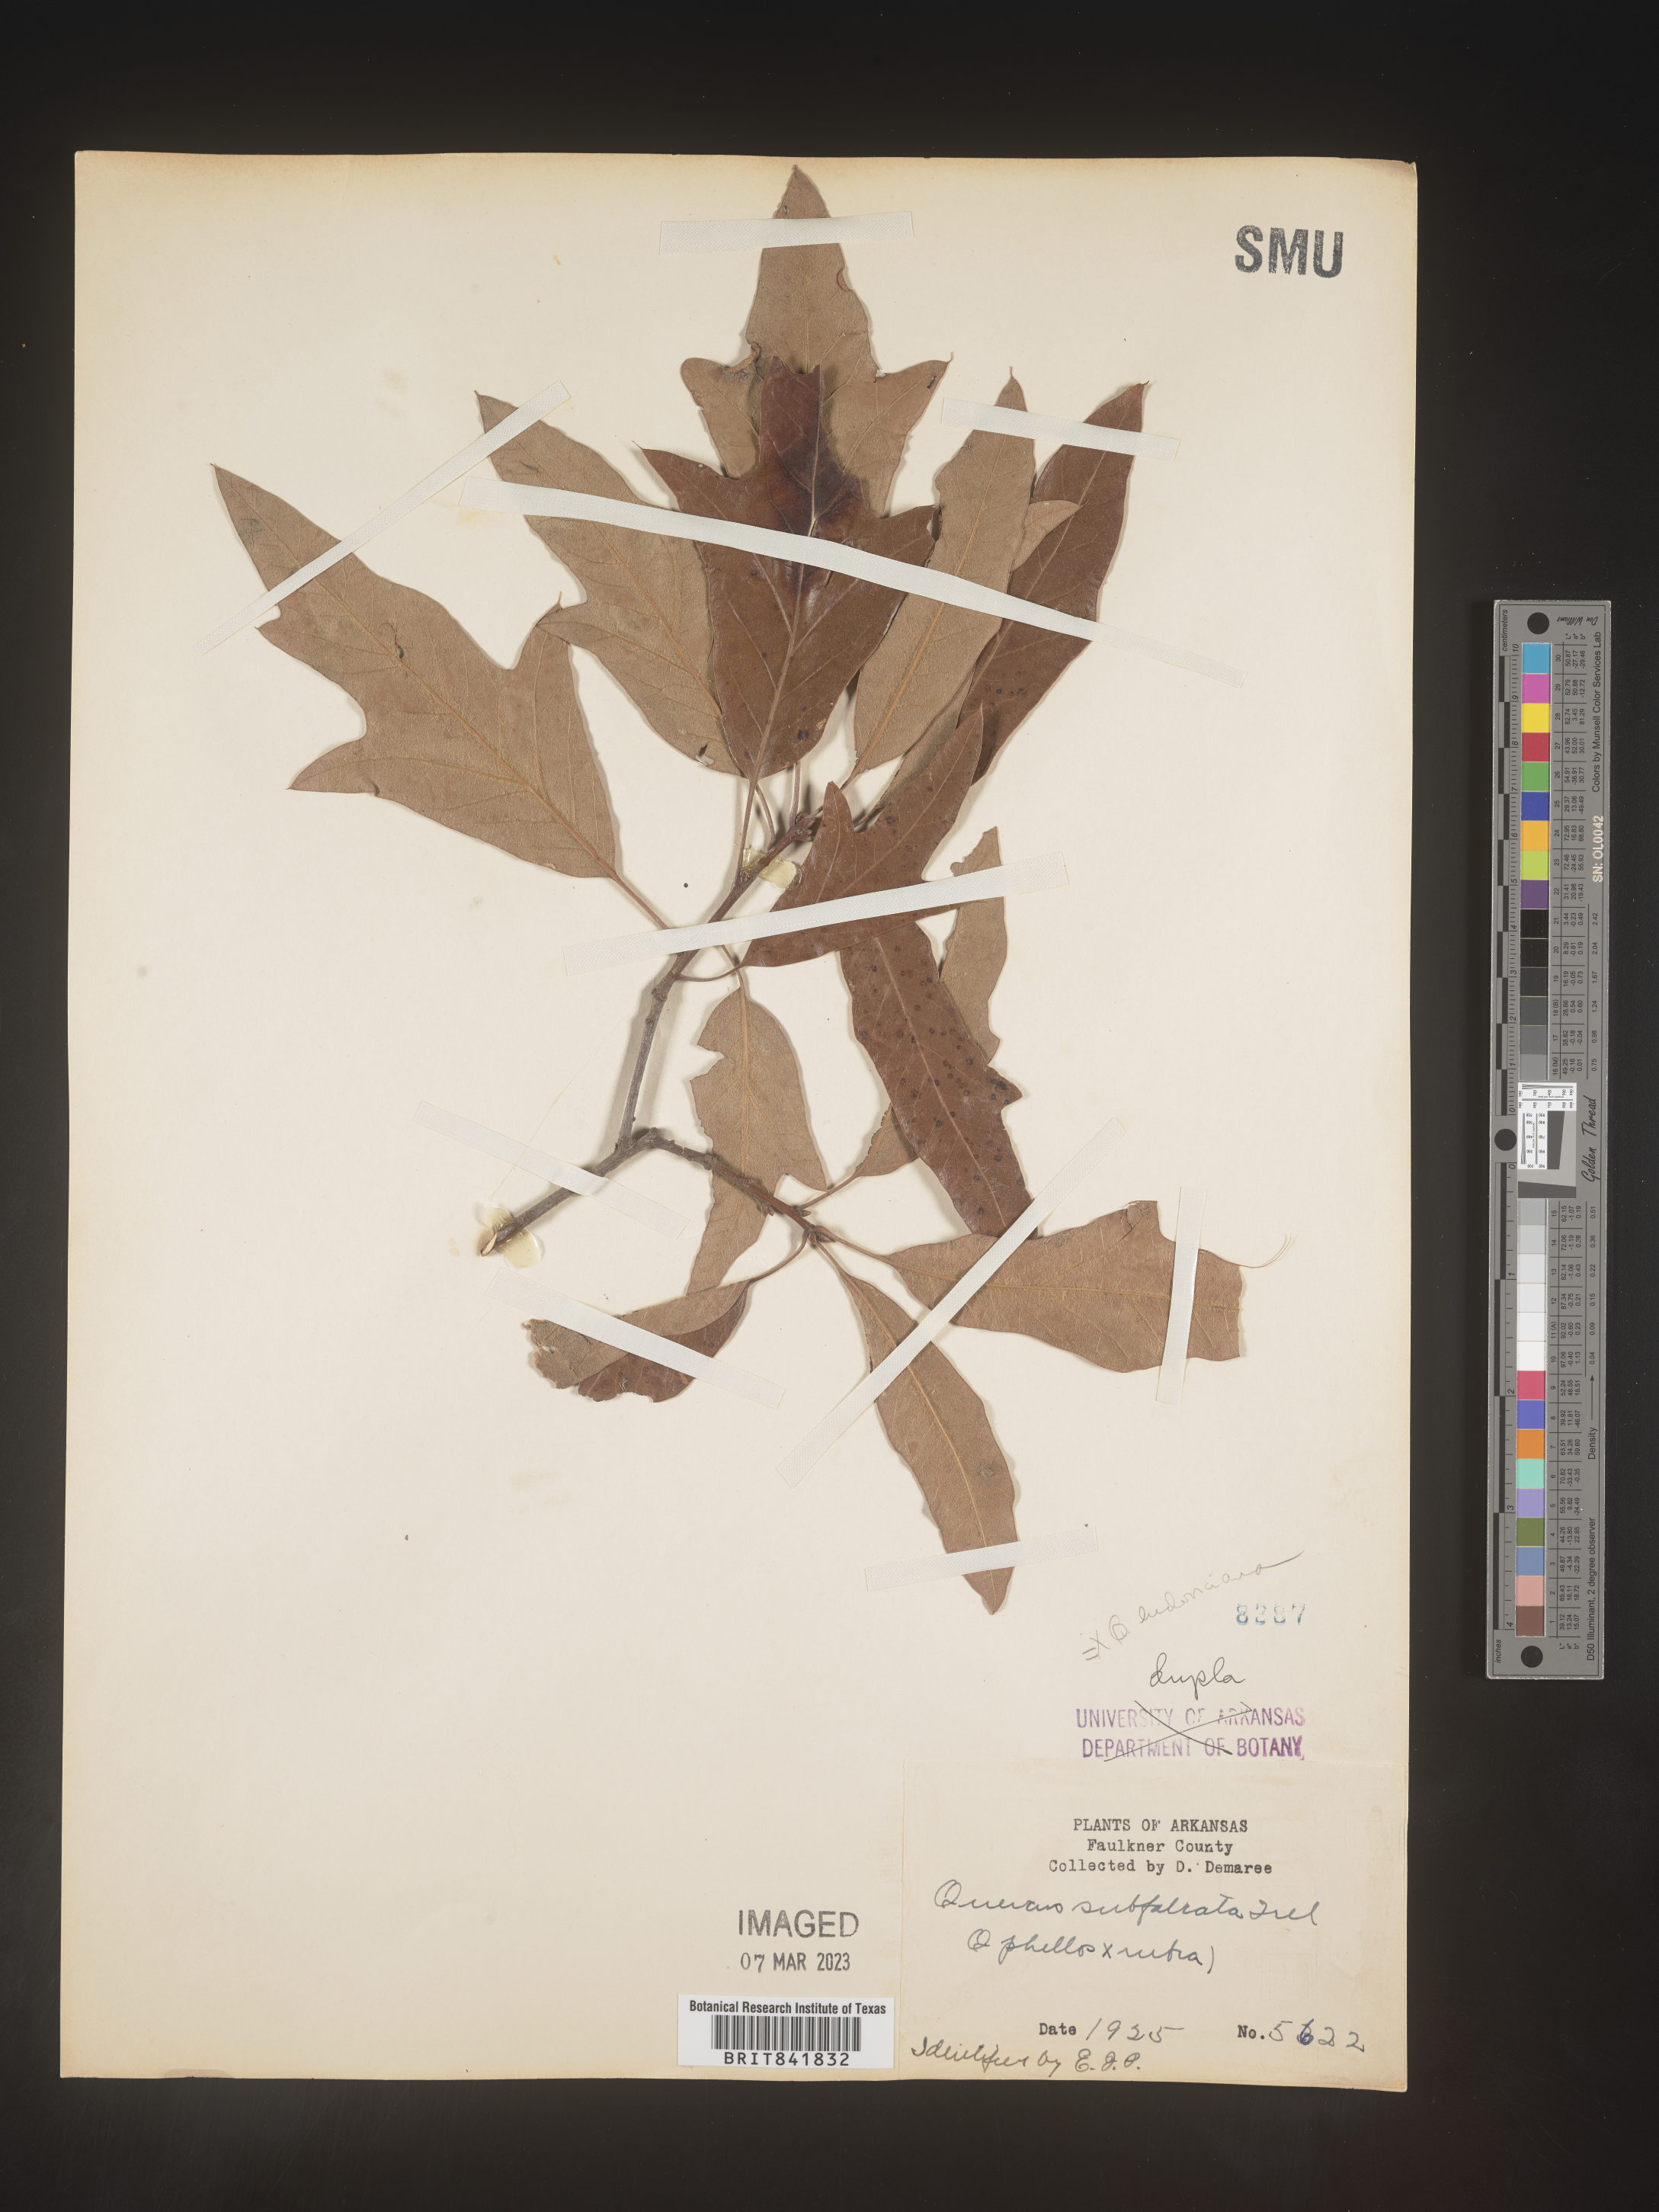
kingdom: Plantae
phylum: Tracheophyta
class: Magnoliopsida
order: Fagales
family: Fagaceae
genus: Quercus
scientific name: Quercus
